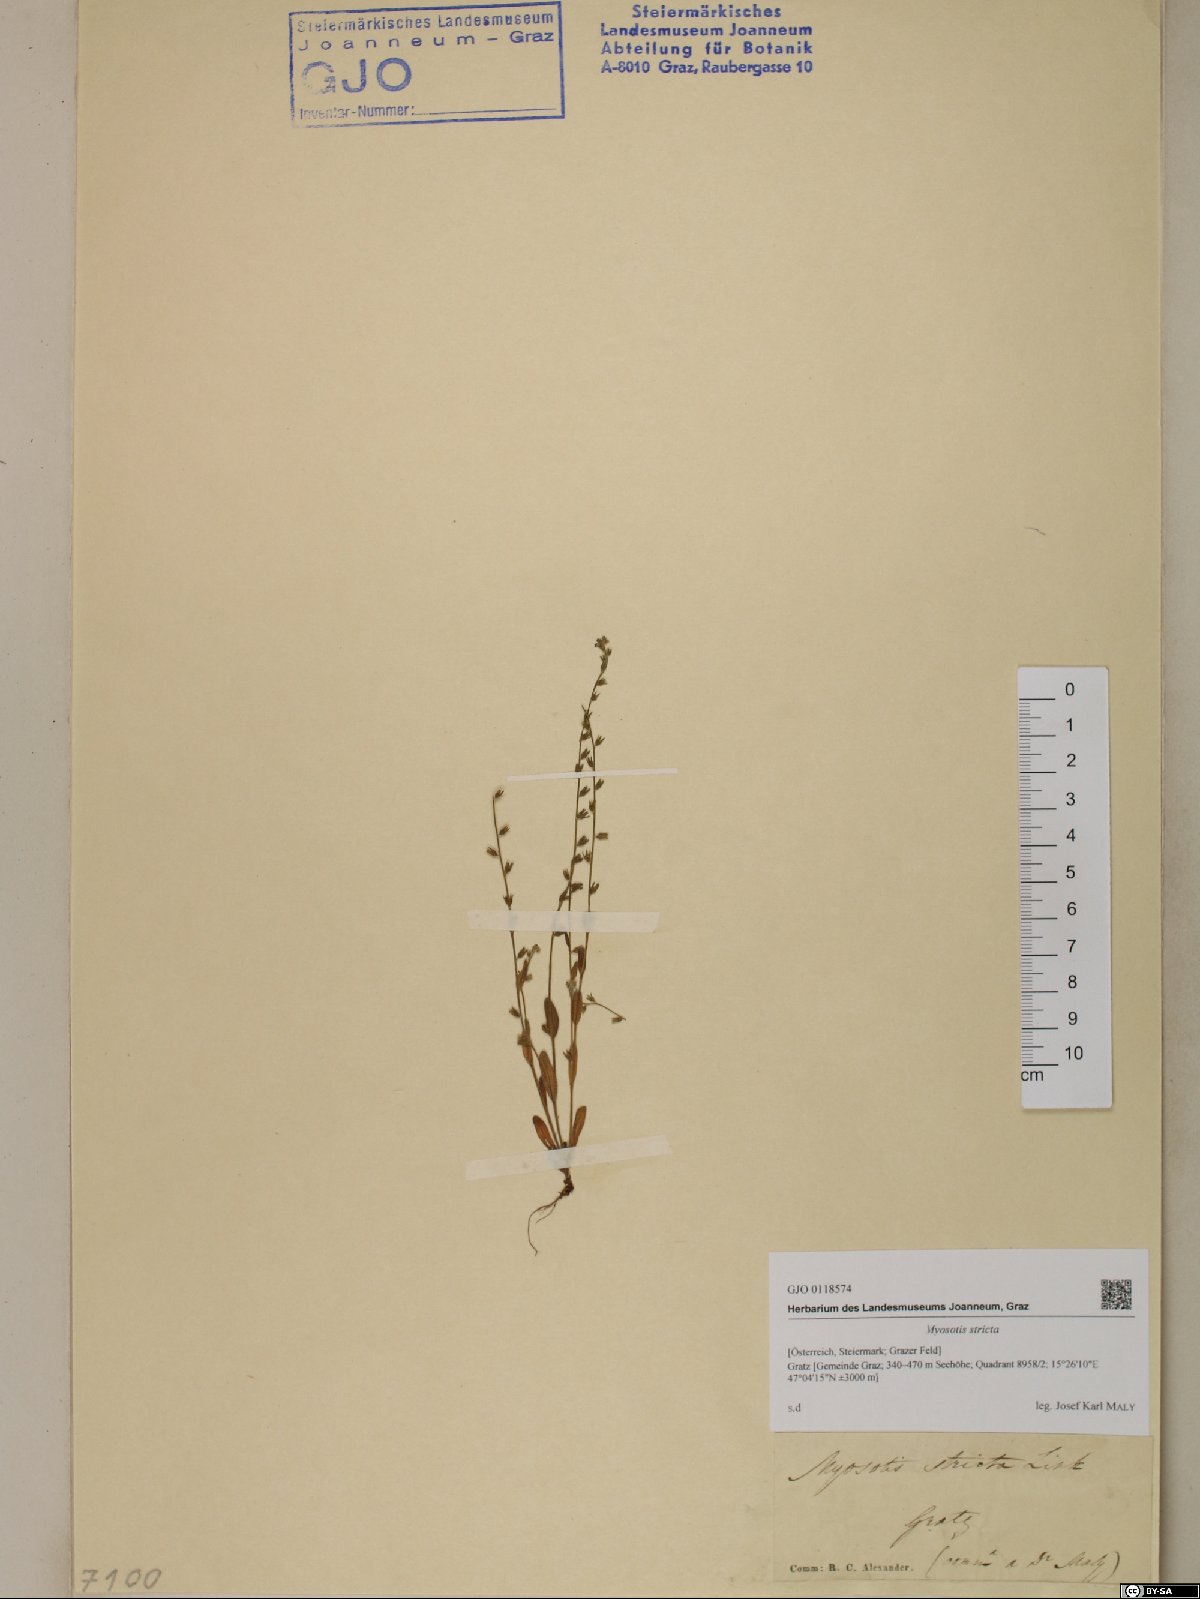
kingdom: Plantae
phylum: Tracheophyta
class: Magnoliopsida
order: Boraginales
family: Boraginaceae
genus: Myosotis
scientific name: Myosotis stricta
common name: Strict forget-me-not
